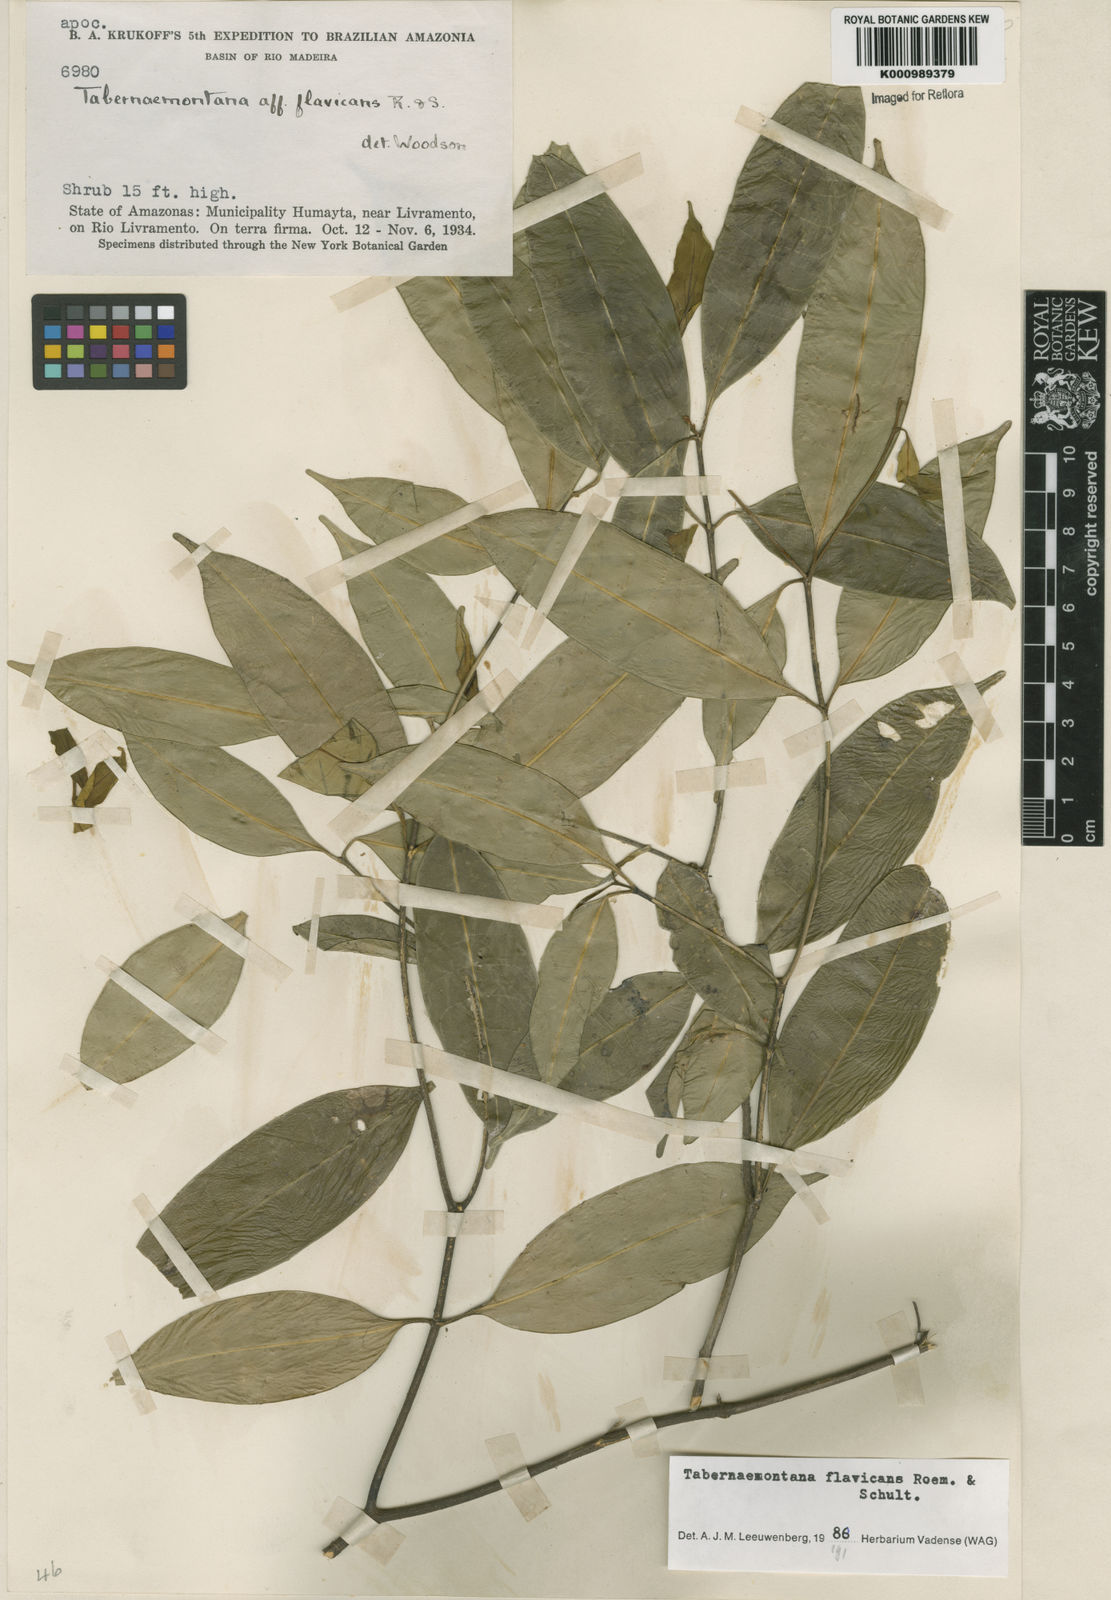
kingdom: Plantae
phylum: Tracheophyta
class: Magnoliopsida
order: Gentianales
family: Apocynaceae
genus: Tabernaemontana
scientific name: Tabernaemontana flavicans
